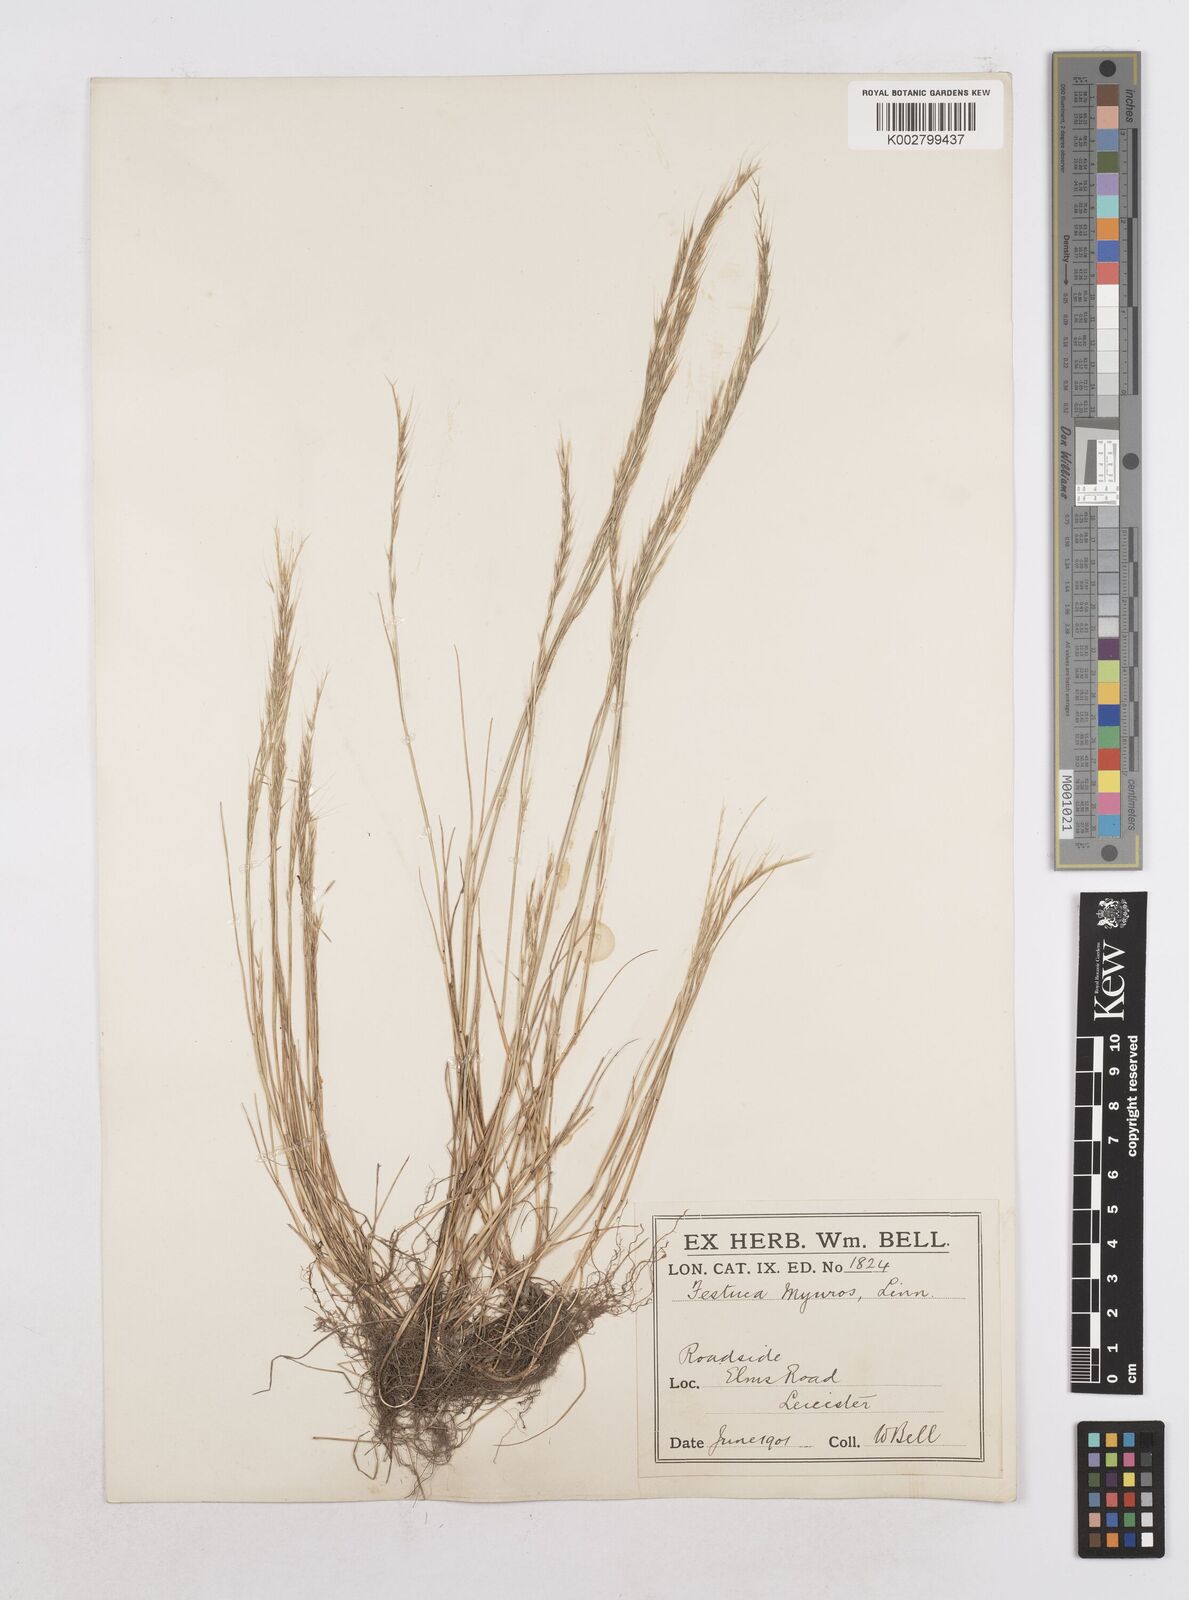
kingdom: Plantae
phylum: Tracheophyta
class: Liliopsida
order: Poales
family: Poaceae
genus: Festuca
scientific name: Festuca myuros
